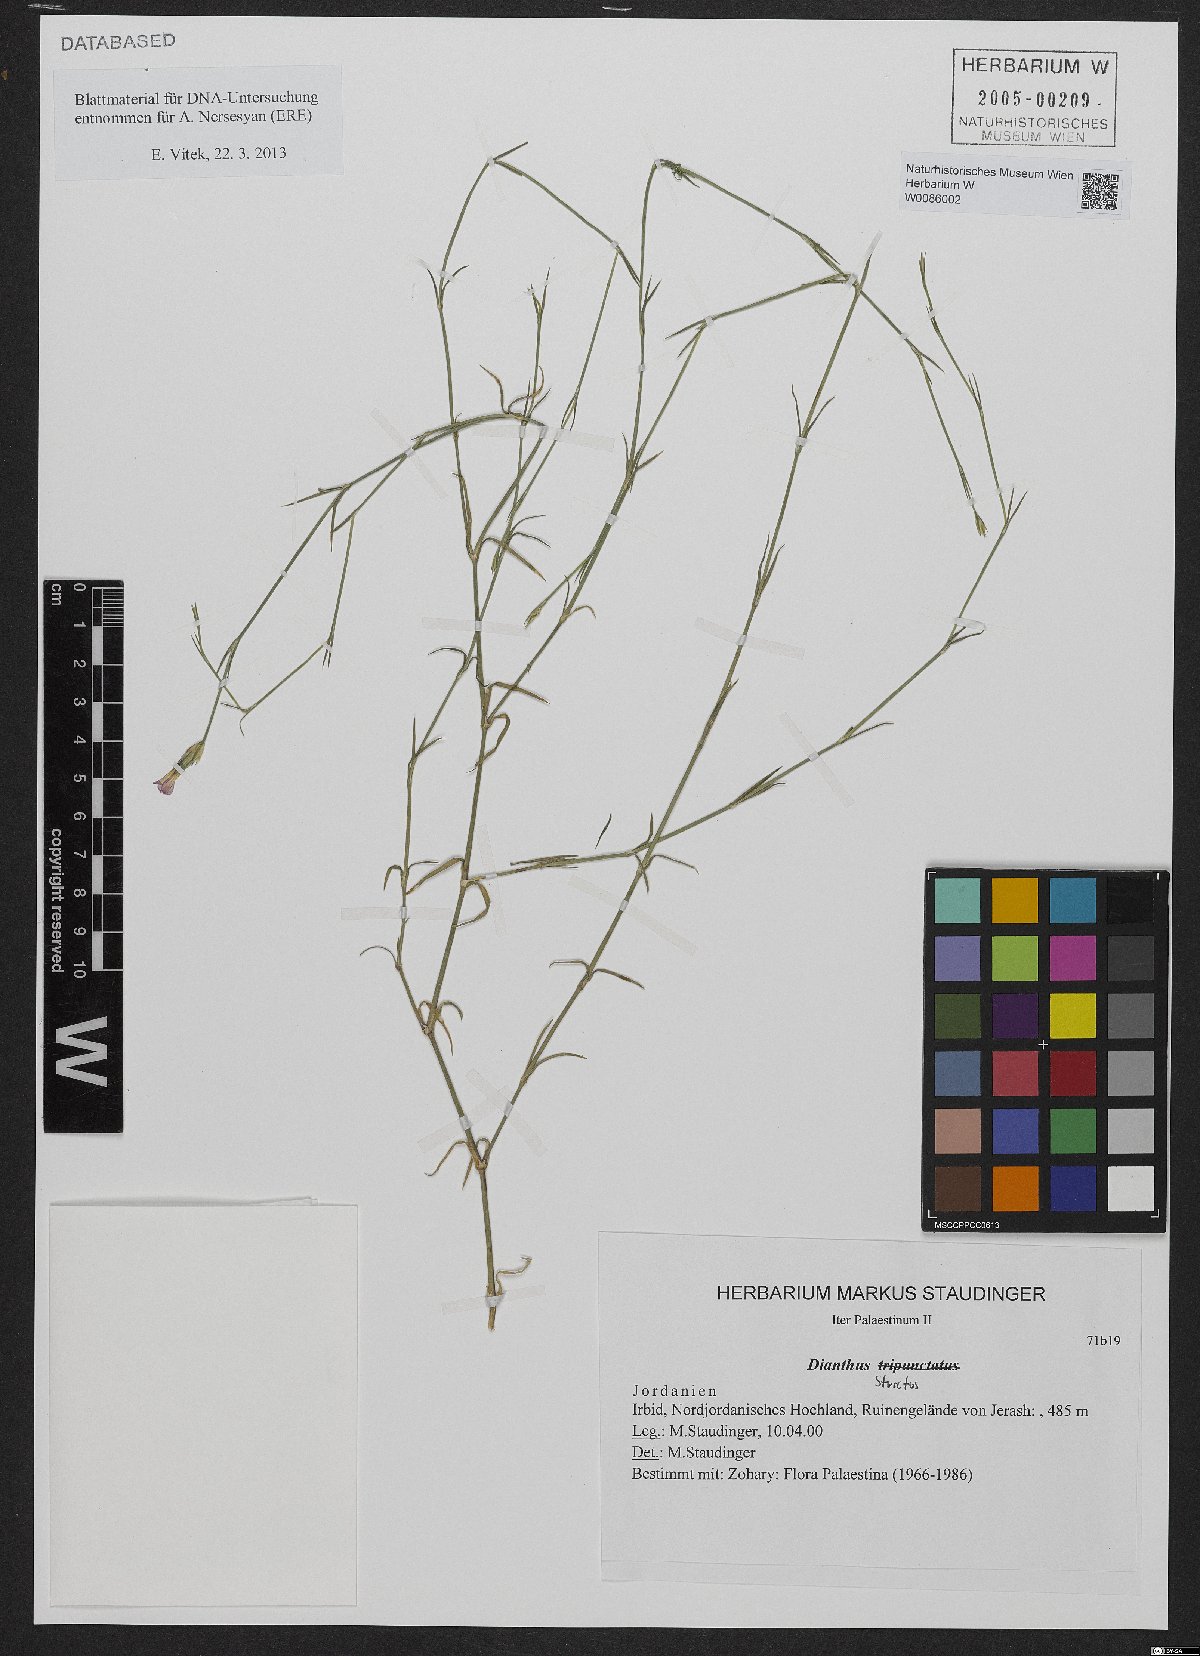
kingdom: Plantae
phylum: Tracheophyta
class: Magnoliopsida
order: Caryophyllales
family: Caryophyllaceae
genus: Dianthus
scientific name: Dianthus petraeus
